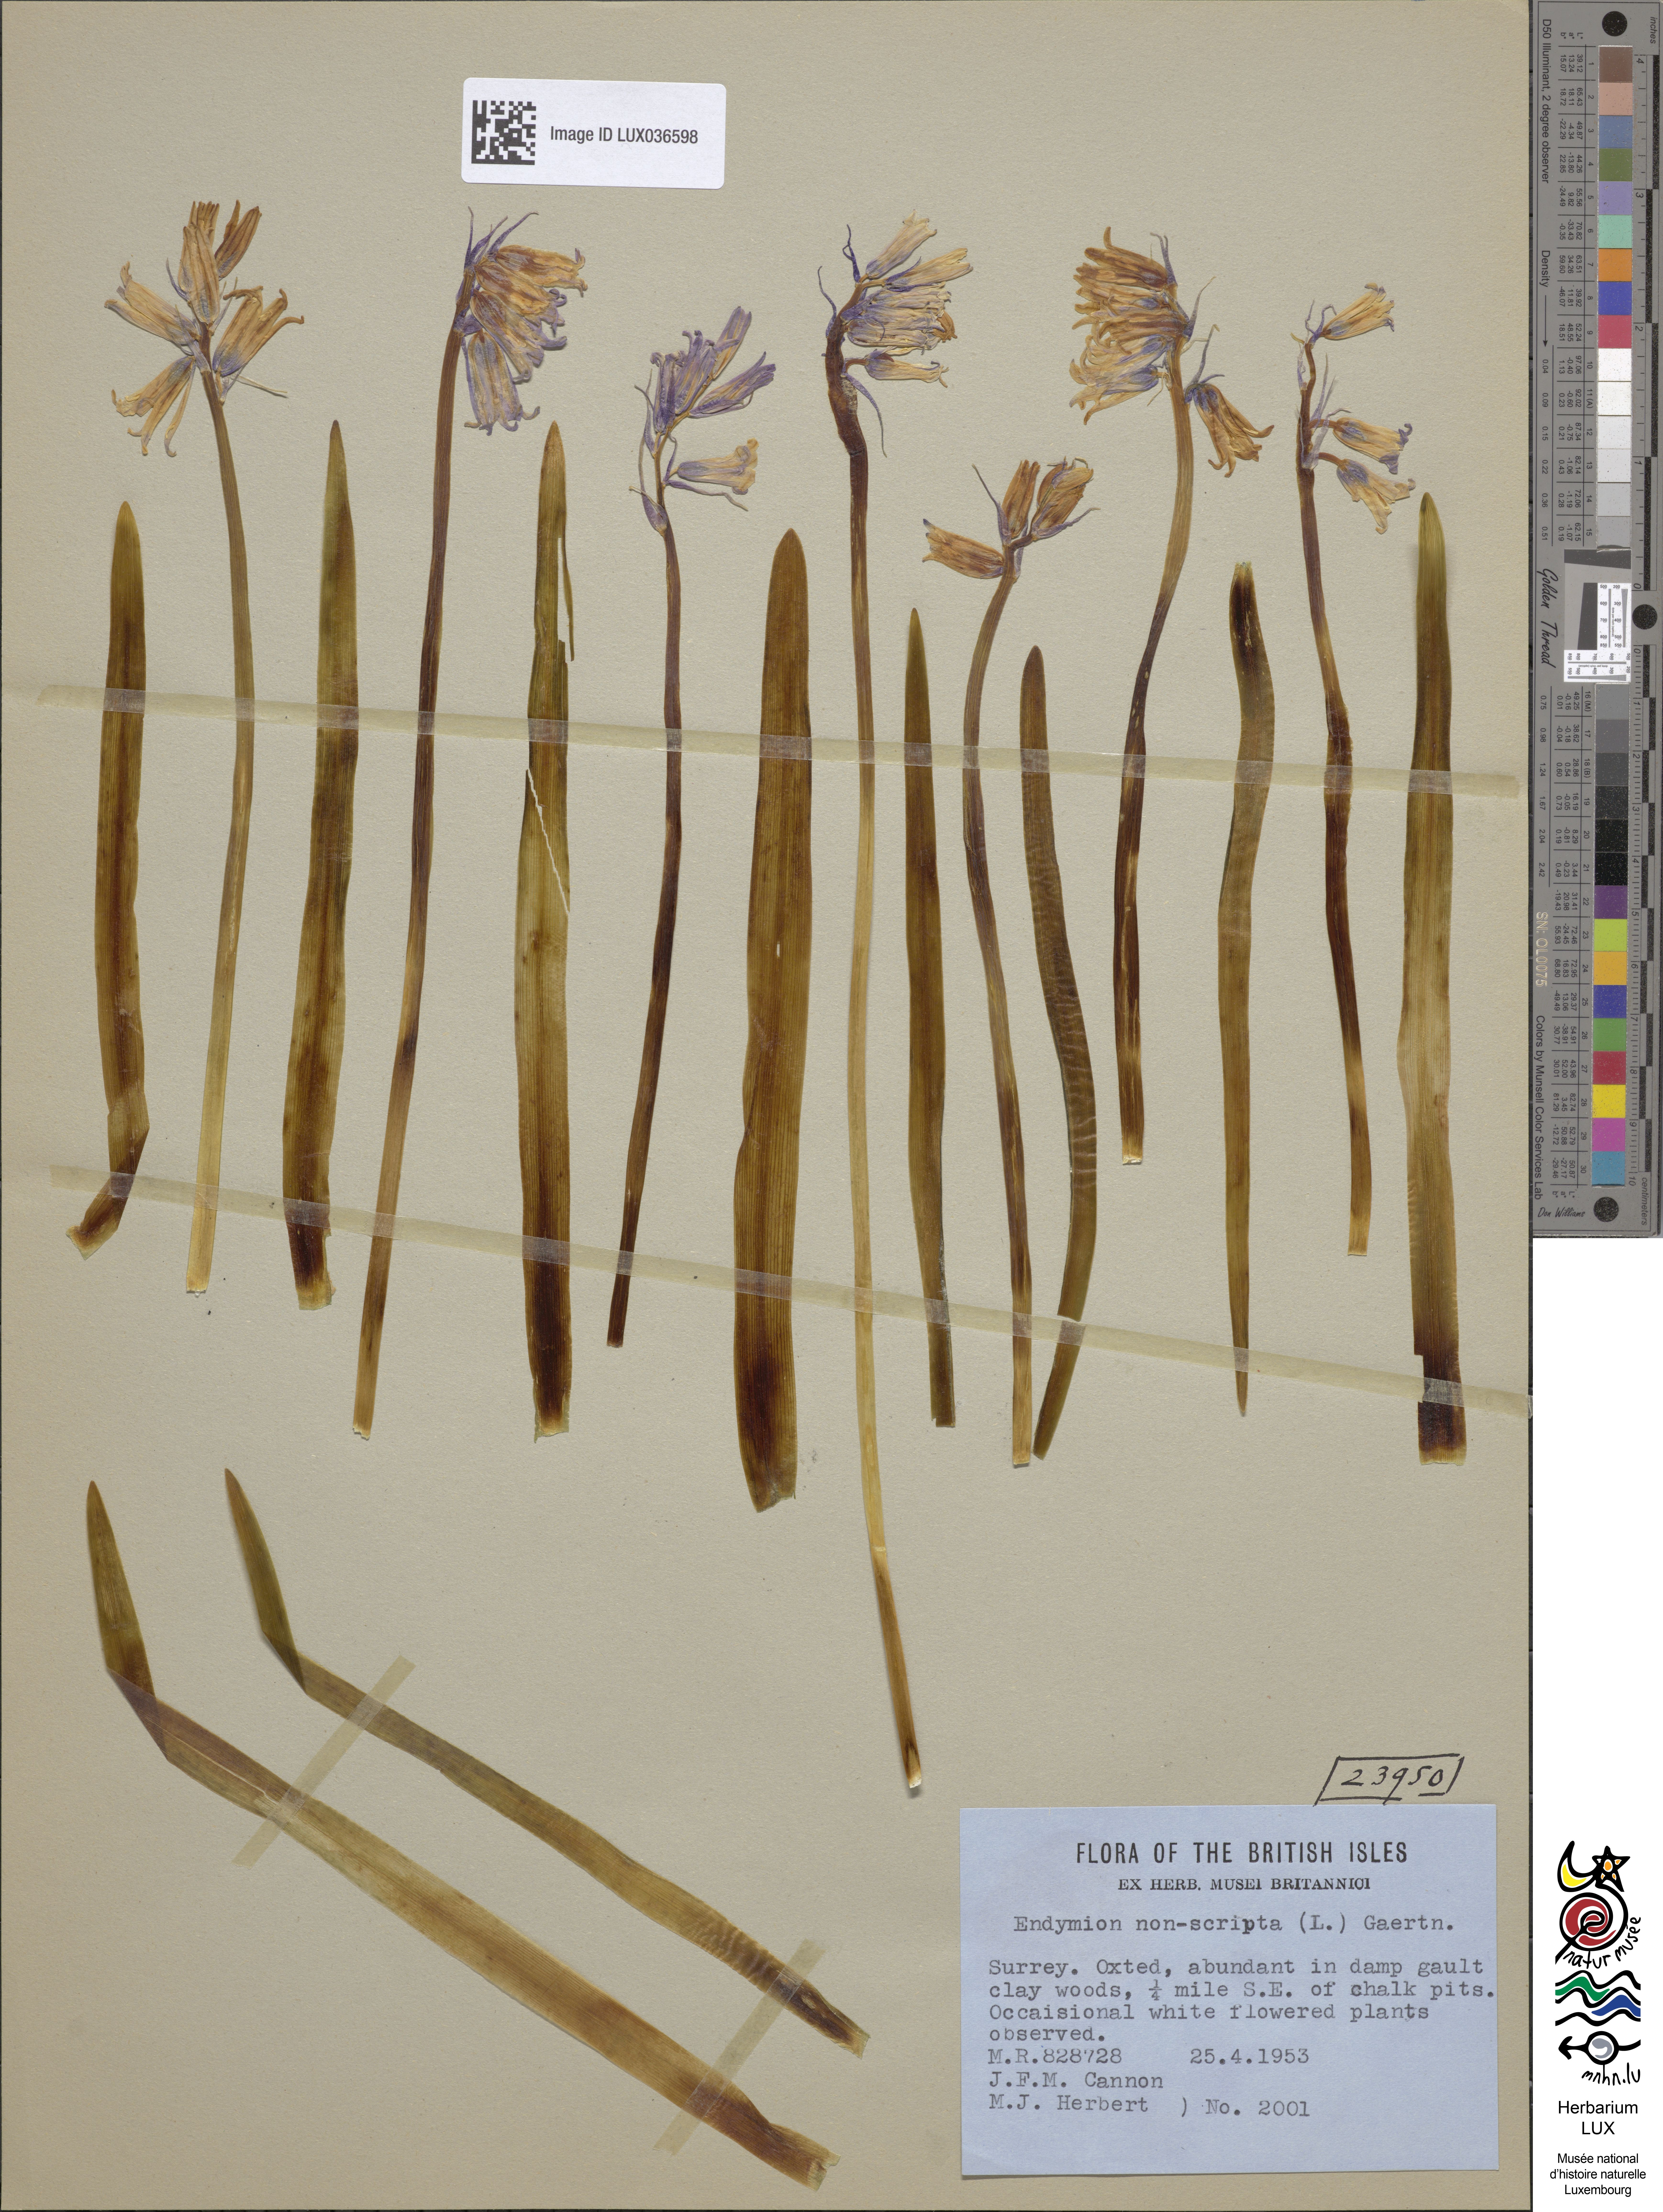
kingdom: Plantae
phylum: Tracheophyta
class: Liliopsida
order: Asparagales
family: Asparagaceae
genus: Hyacinthoides
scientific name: Hyacinthoides non-scripta
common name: Bluebell
